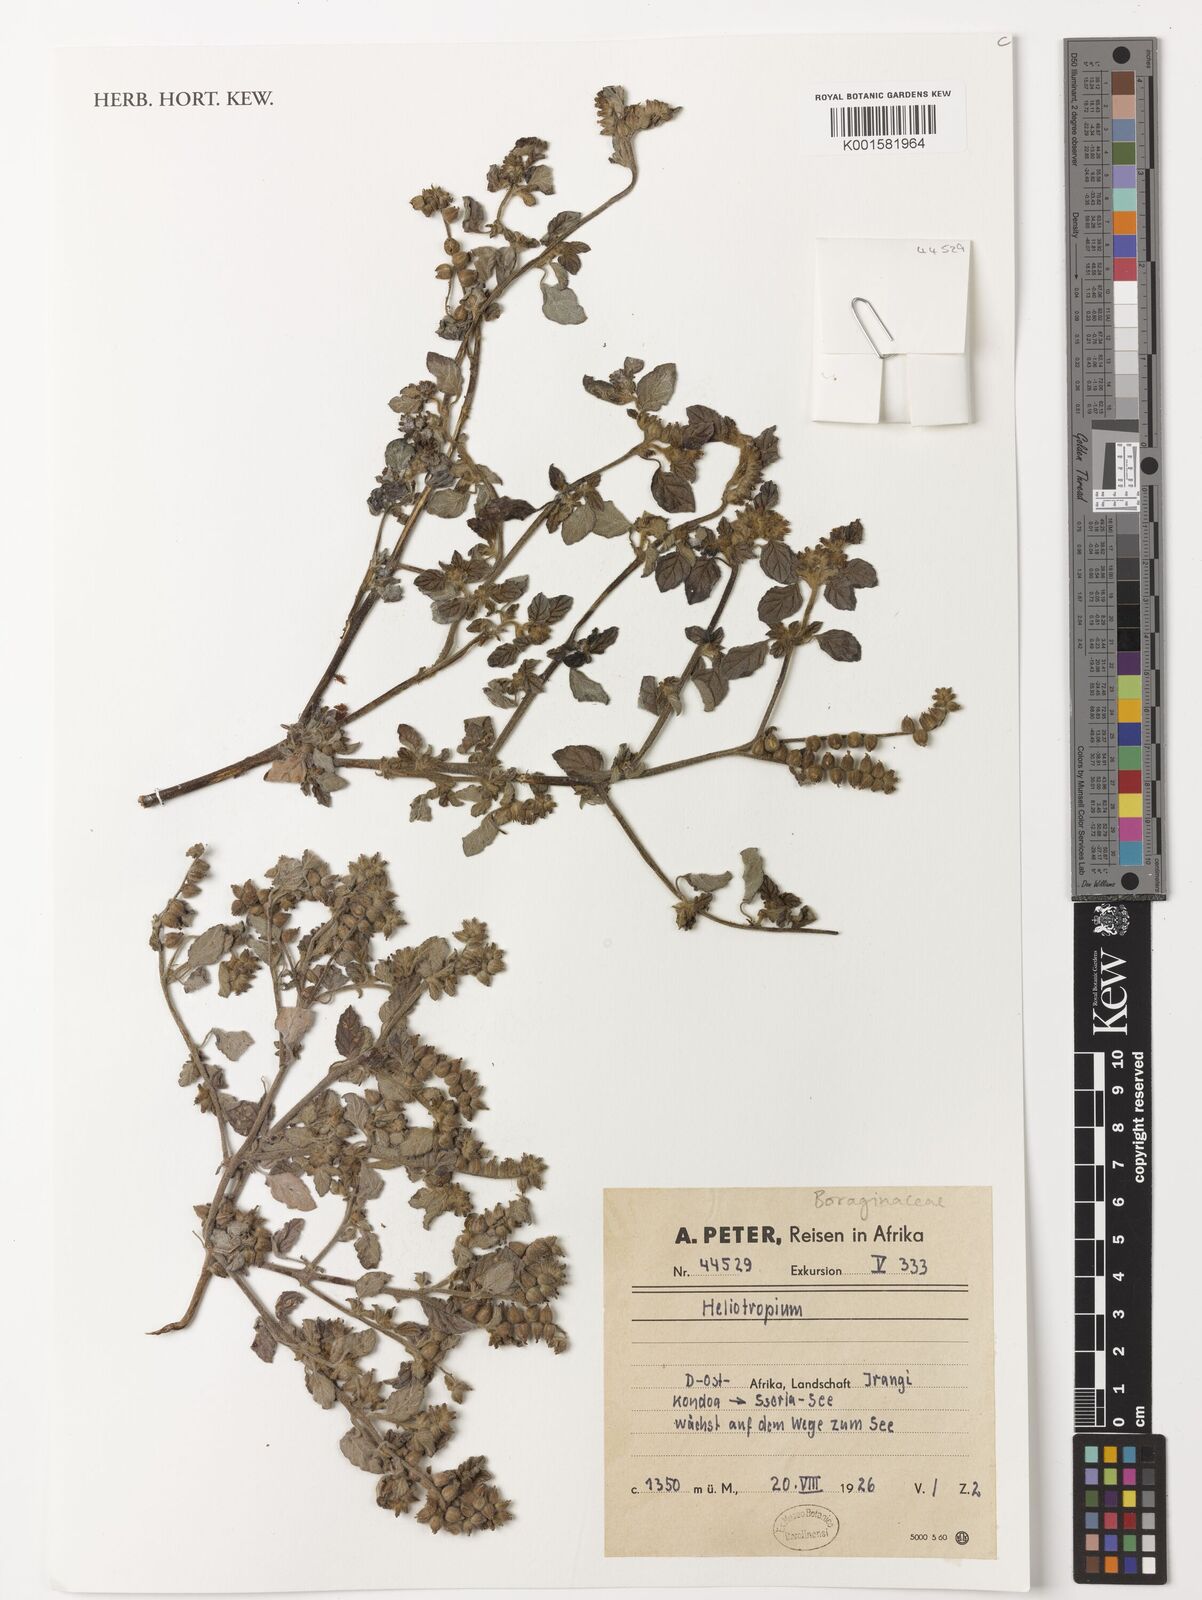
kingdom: Plantae
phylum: Tracheophyta
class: Magnoliopsida
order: Boraginales
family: Heliotropiaceae
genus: Heliotropium
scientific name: Heliotropium
